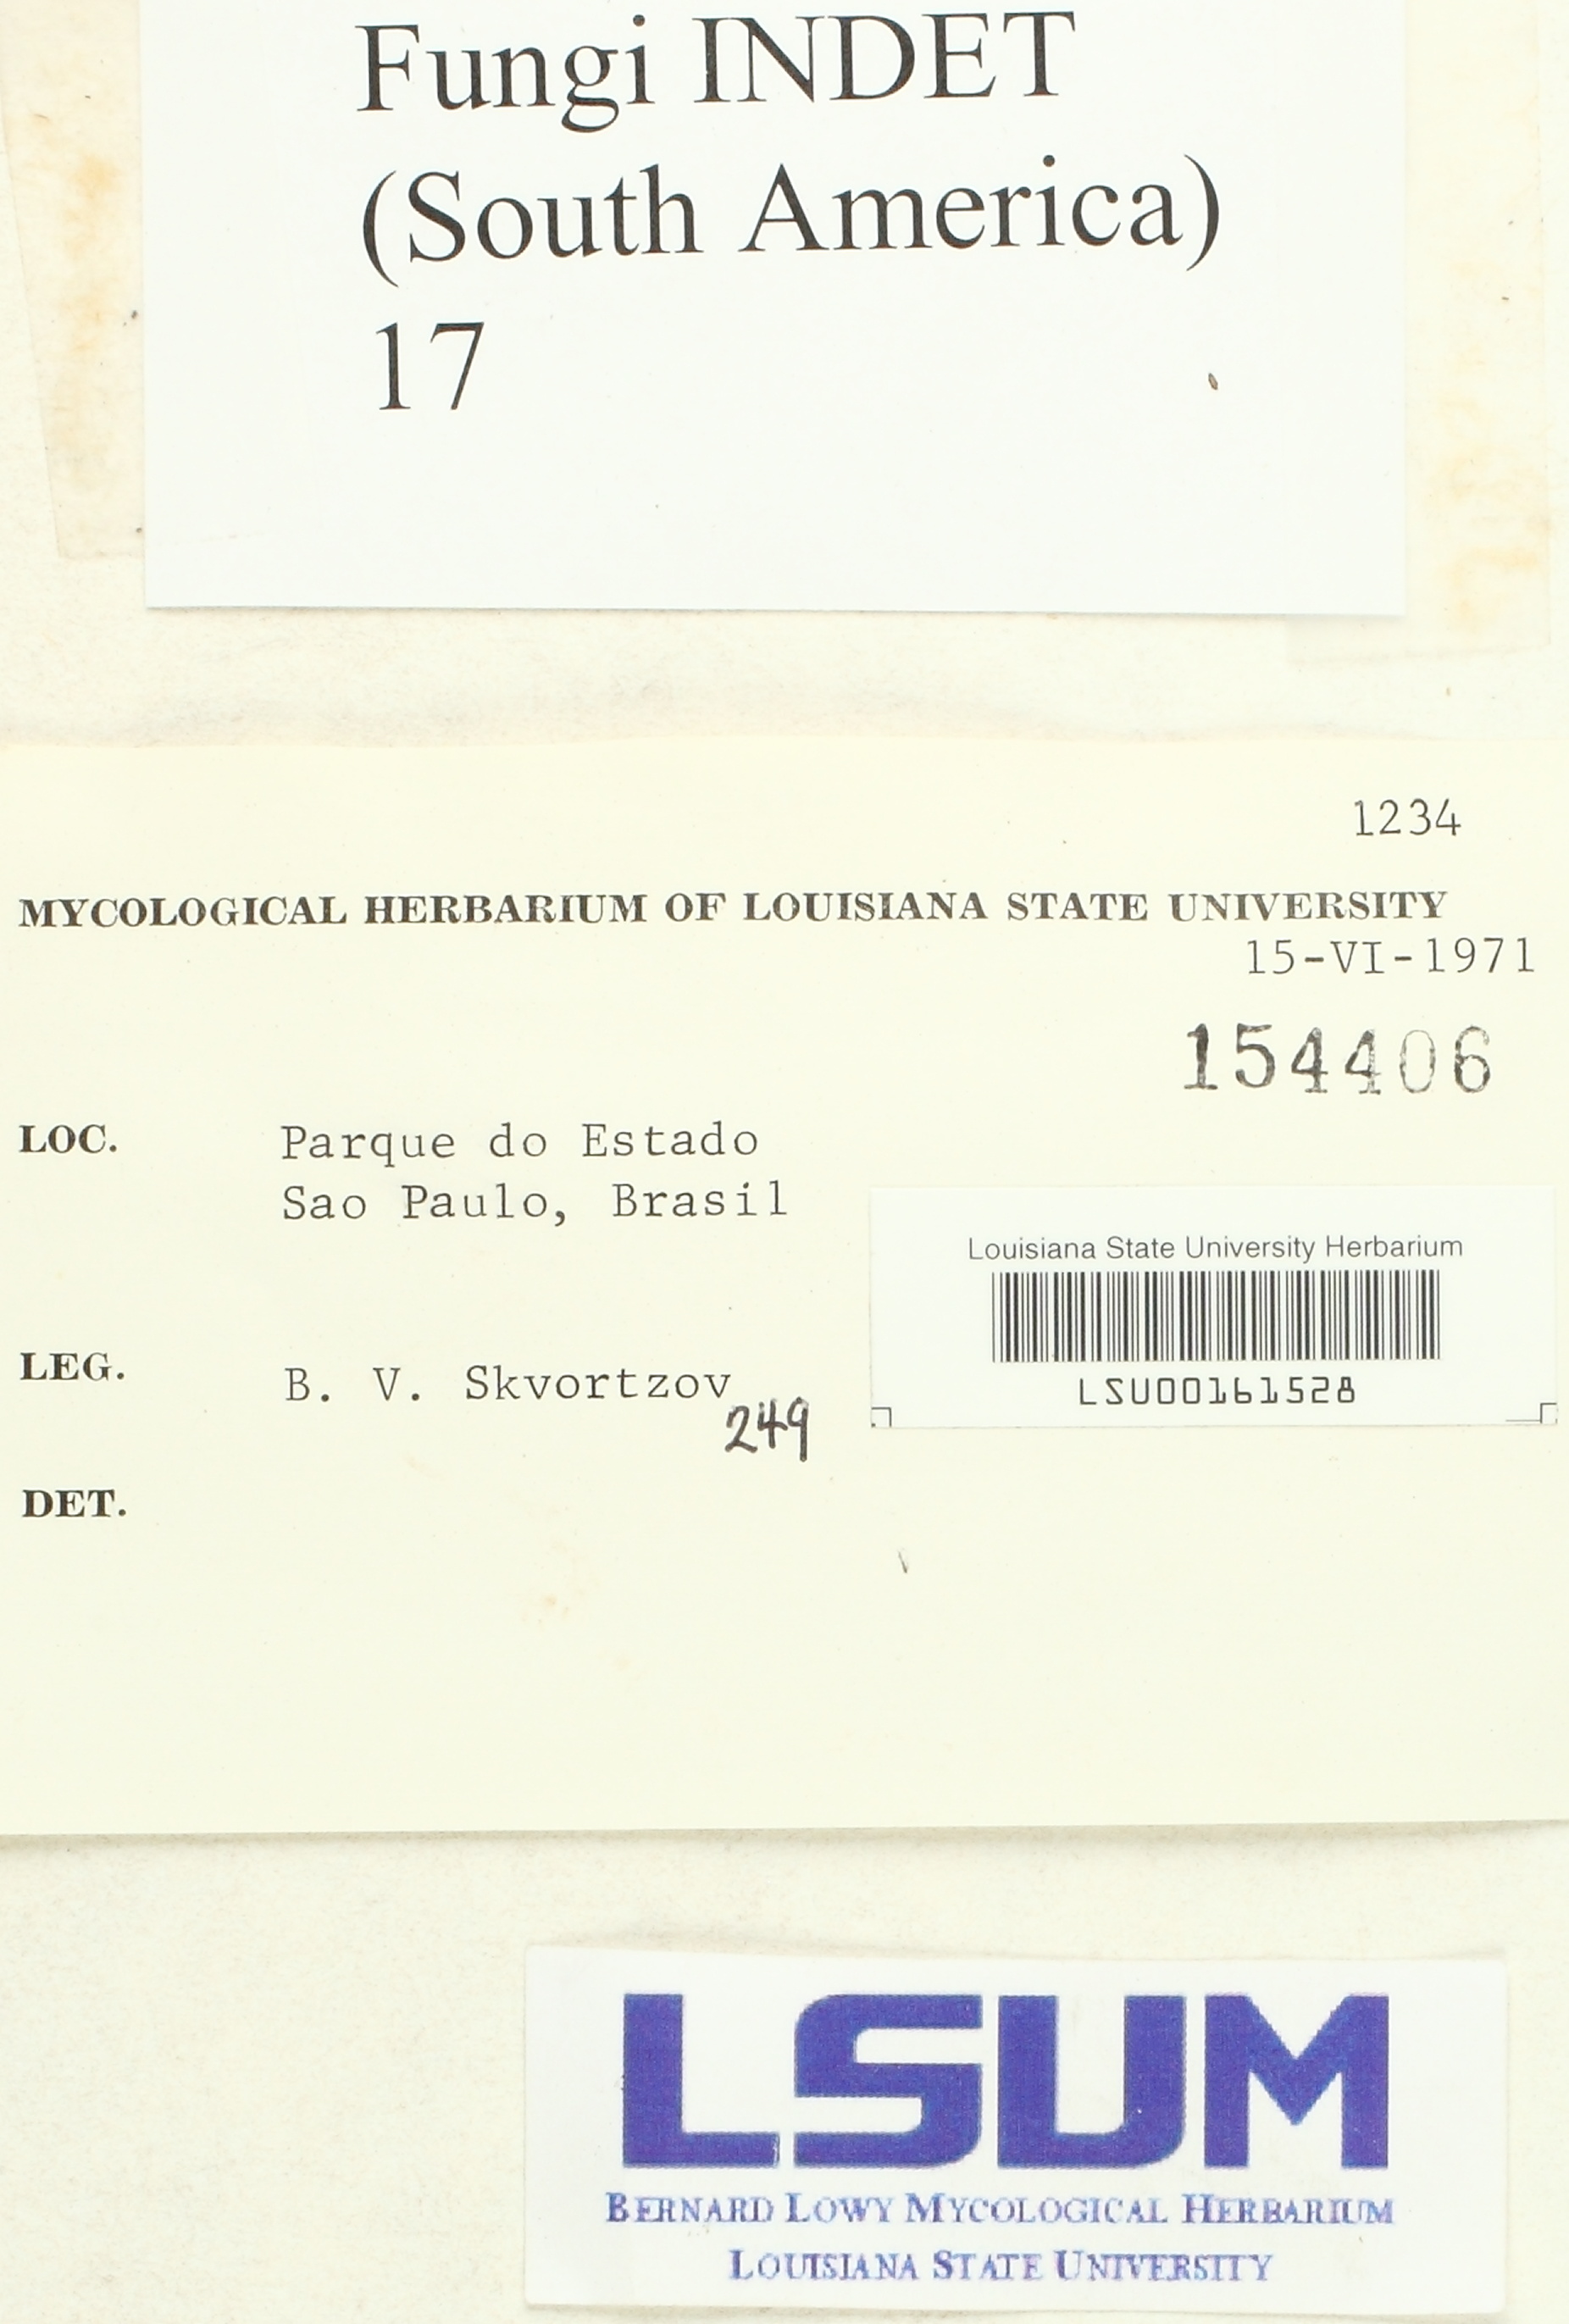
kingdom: Fungi
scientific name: Fungi
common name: Fungi
